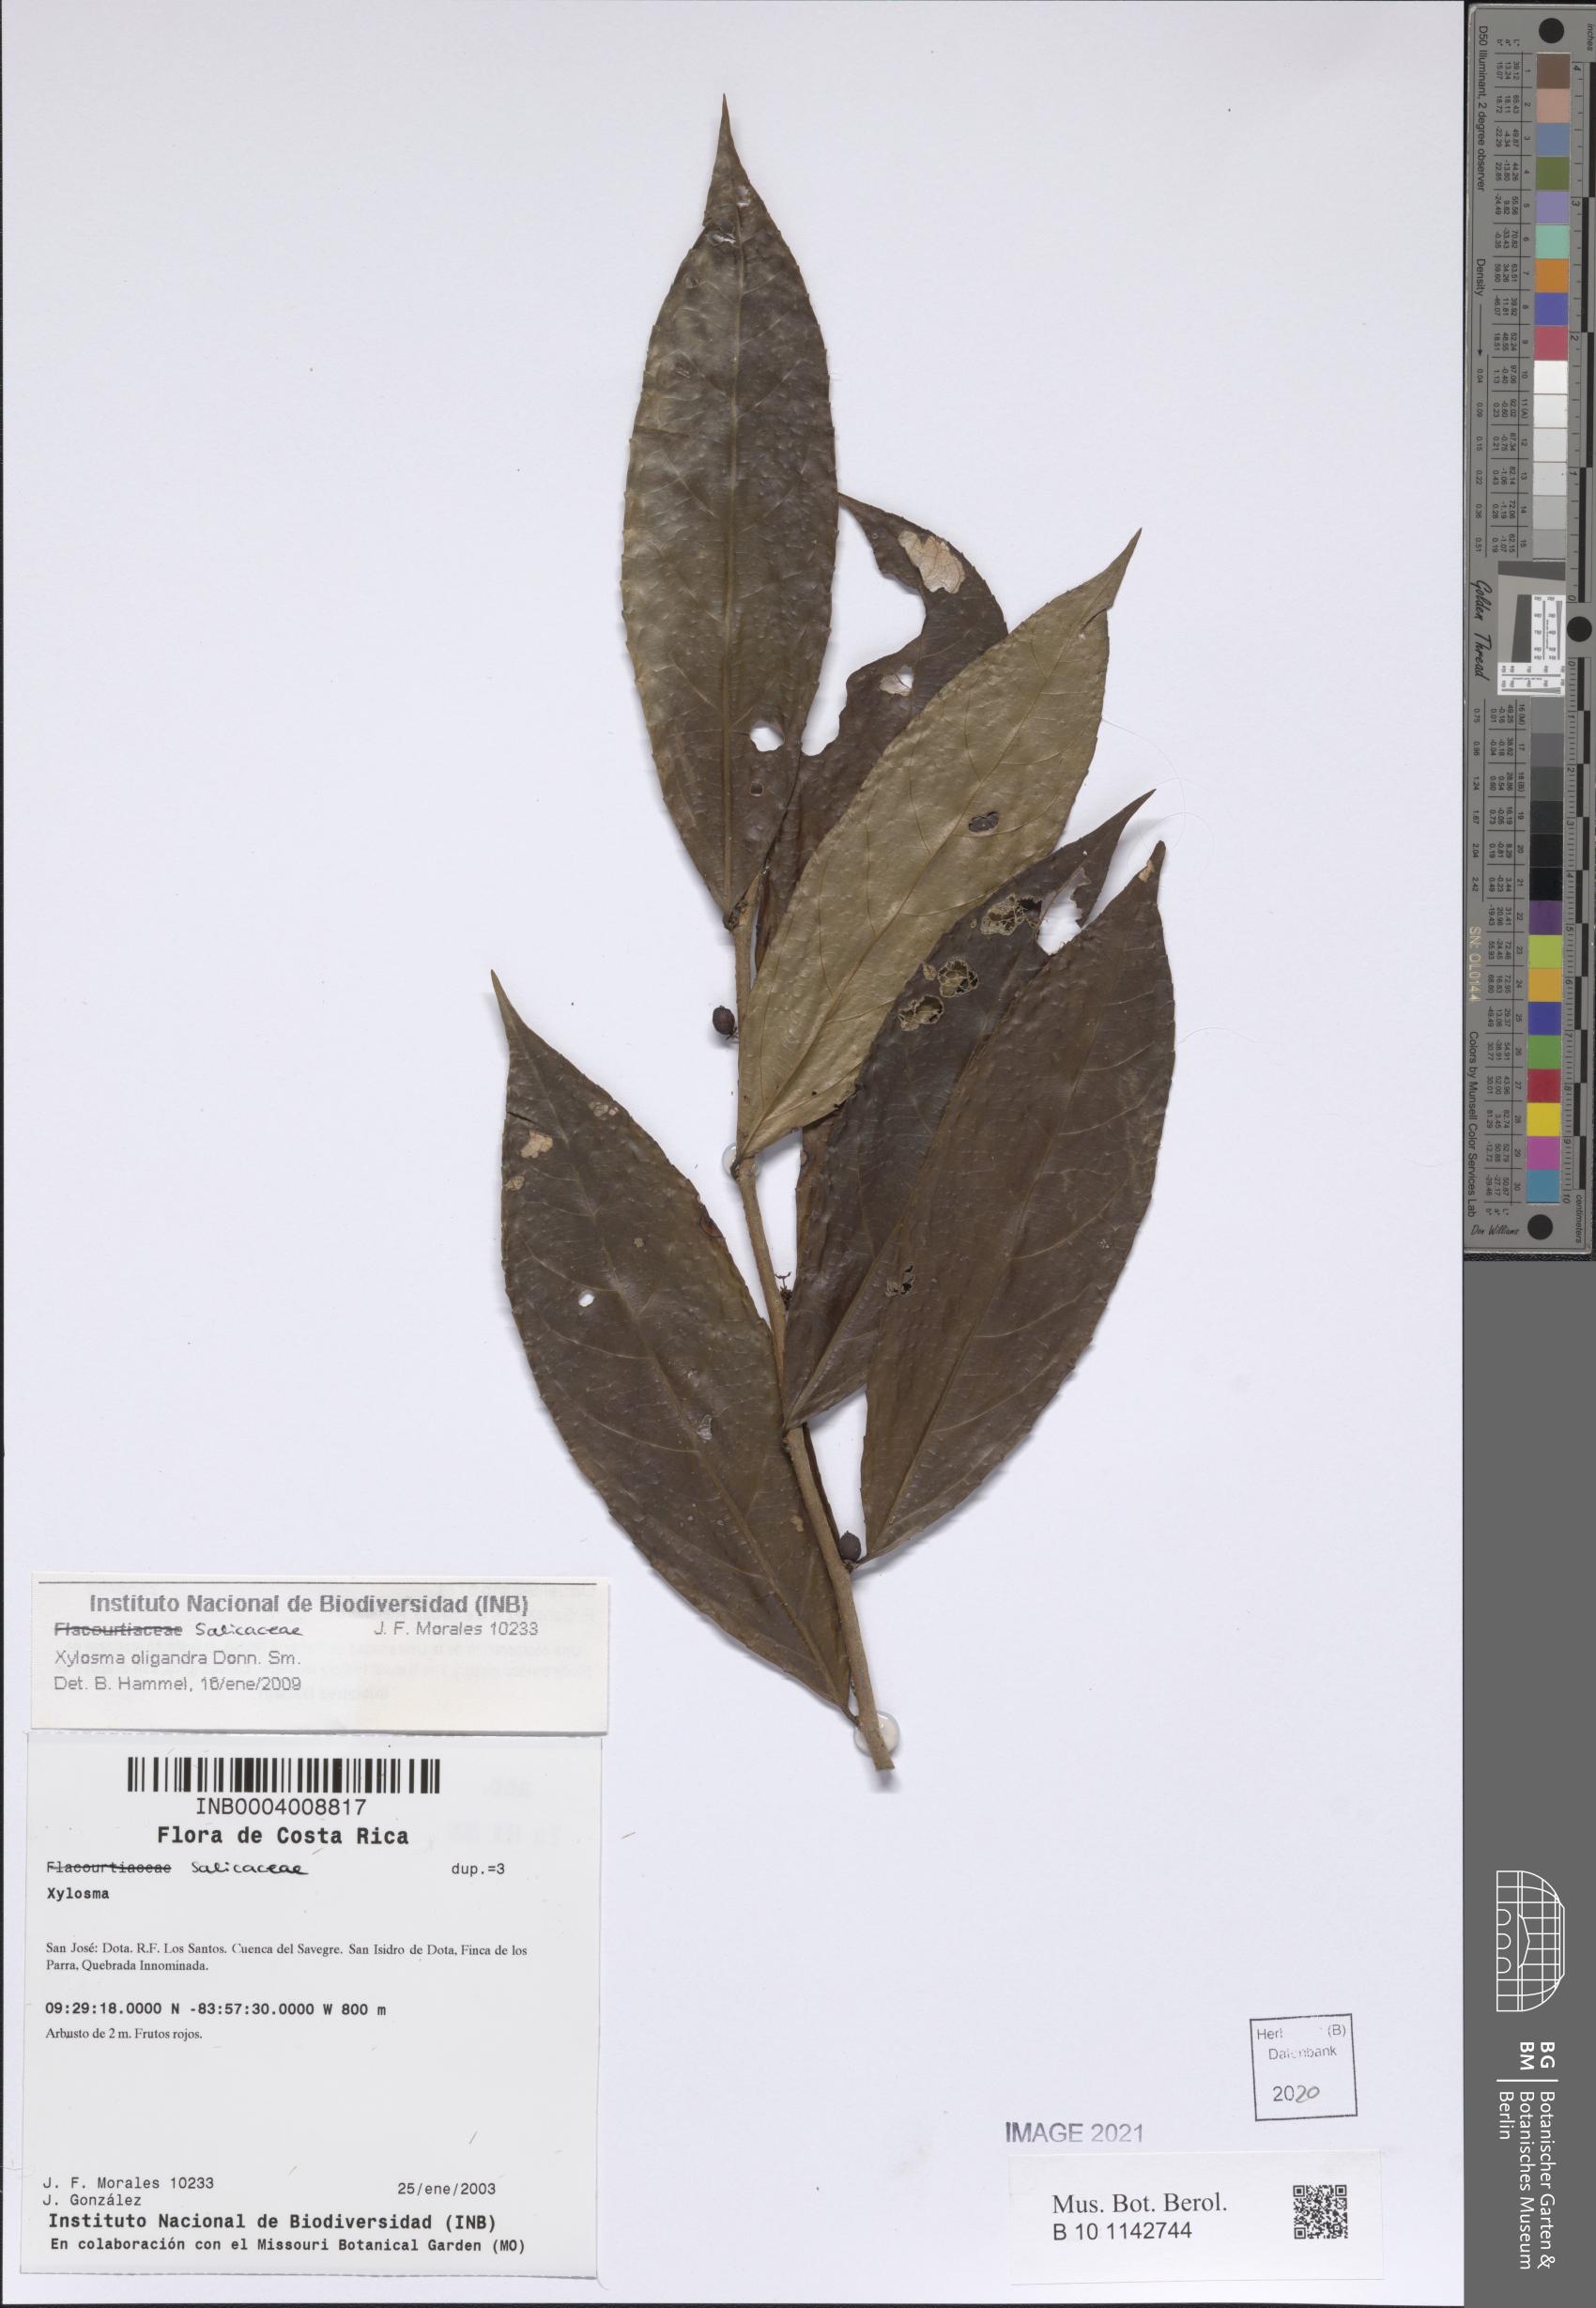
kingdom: Plantae
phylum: Tracheophyta
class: Magnoliopsida
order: Malpighiales
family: Salicaceae
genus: Xylosma
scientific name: Xylosma oligandra
